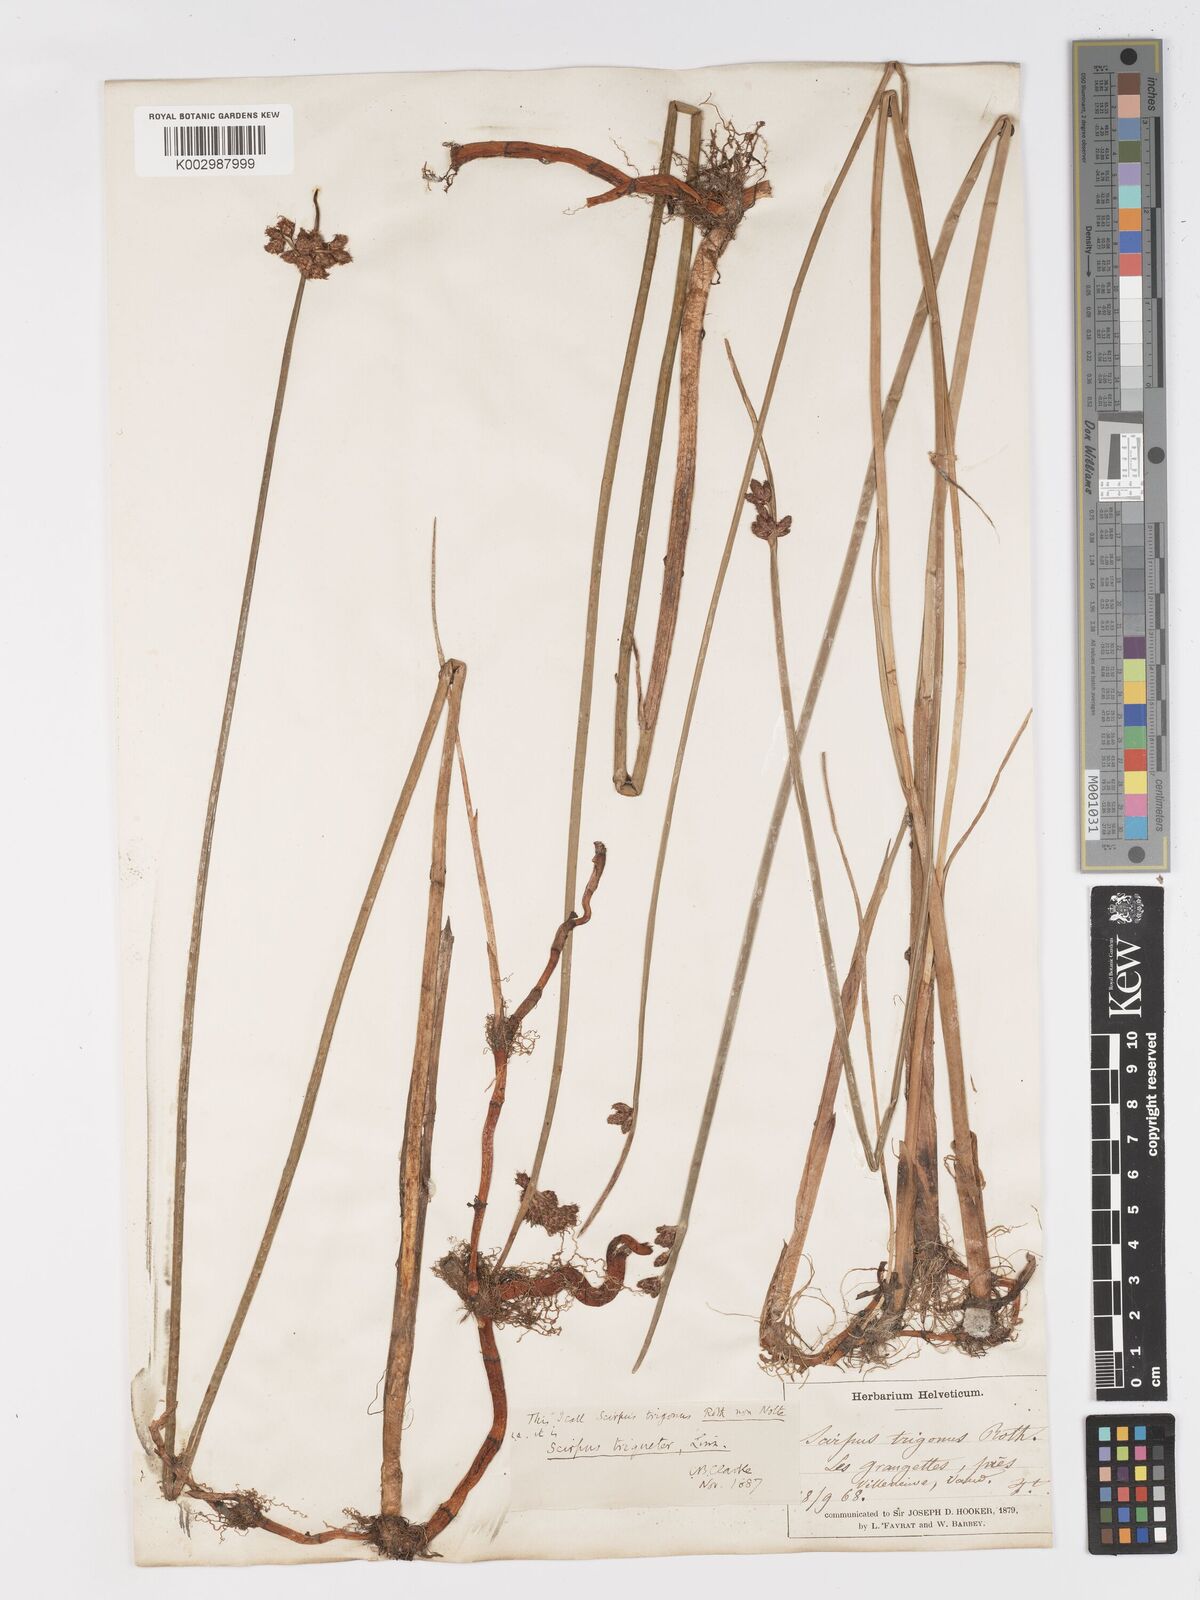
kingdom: Plantae
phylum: Tracheophyta
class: Liliopsida
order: Poales
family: Cyperaceae
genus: Schoenoplectus
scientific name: Schoenoplectus triqueter
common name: Triangular club-rush
